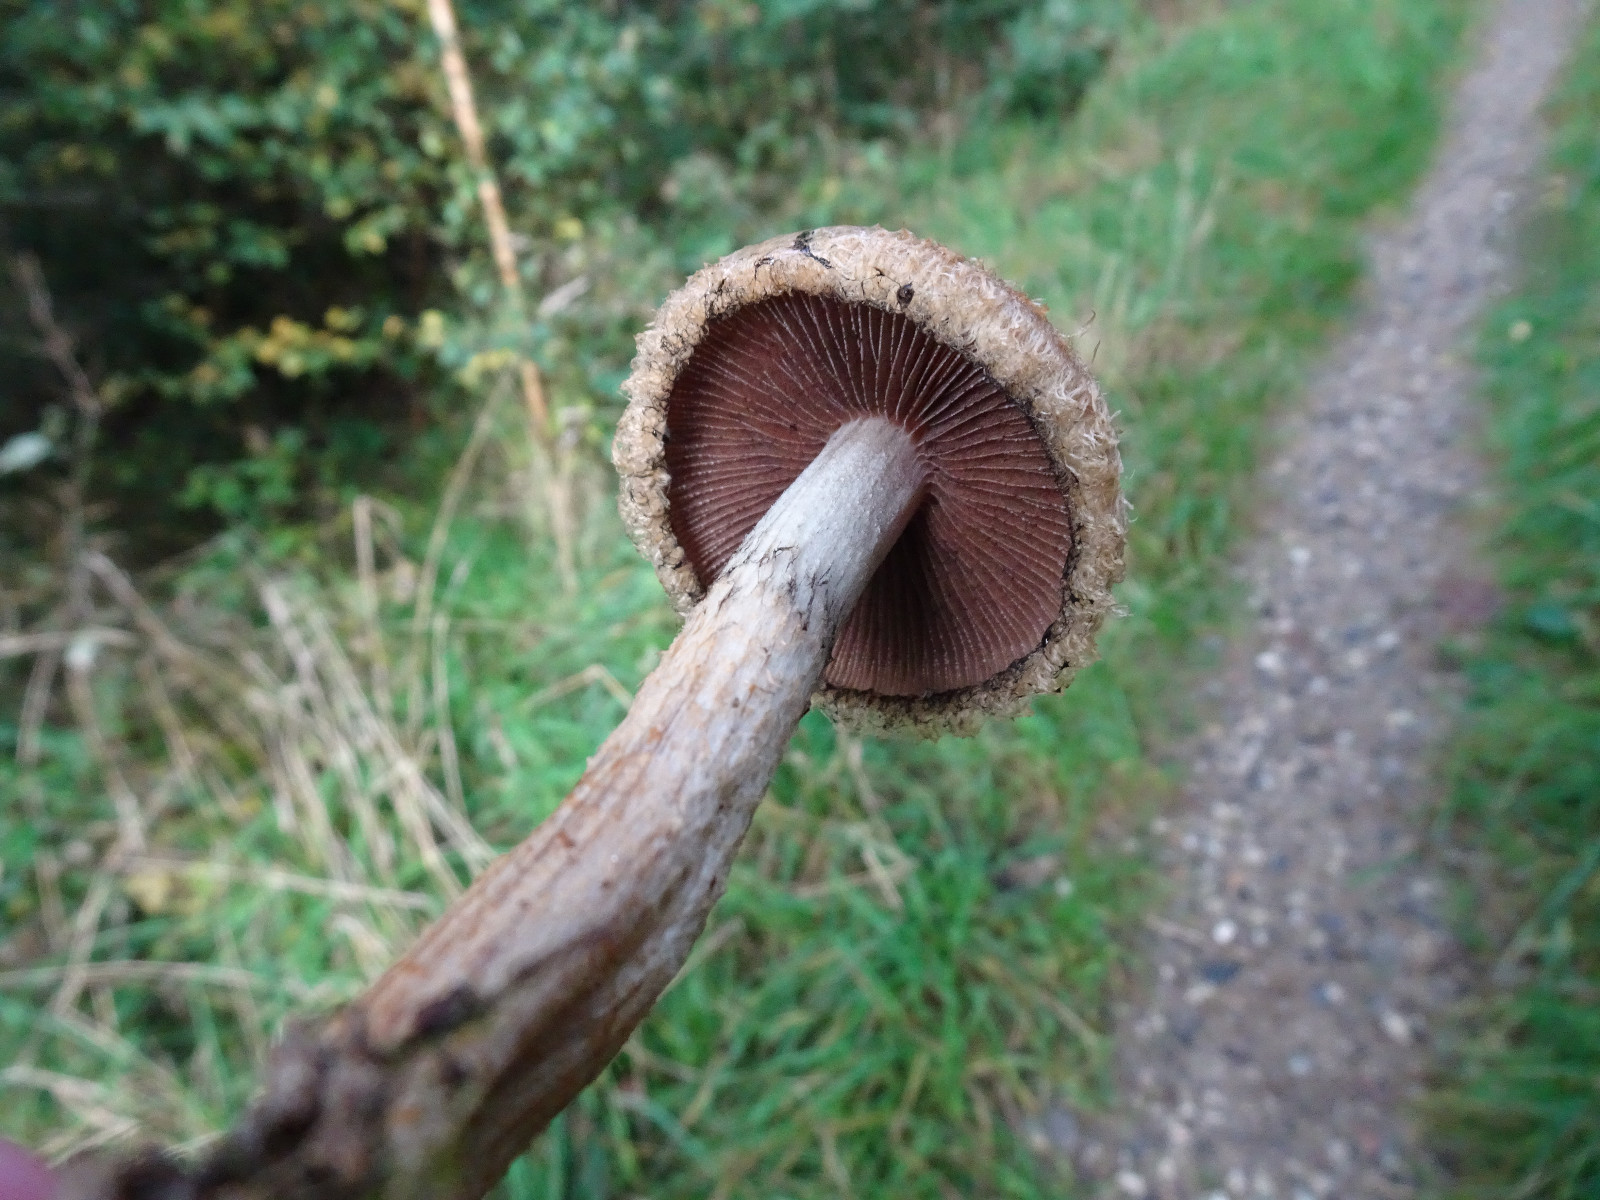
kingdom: Fungi
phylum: Basidiomycota
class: Agaricomycetes
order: Agaricales
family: Psathyrellaceae
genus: Lacrymaria
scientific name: Lacrymaria lacrymabunda
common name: grædende mørkhat
